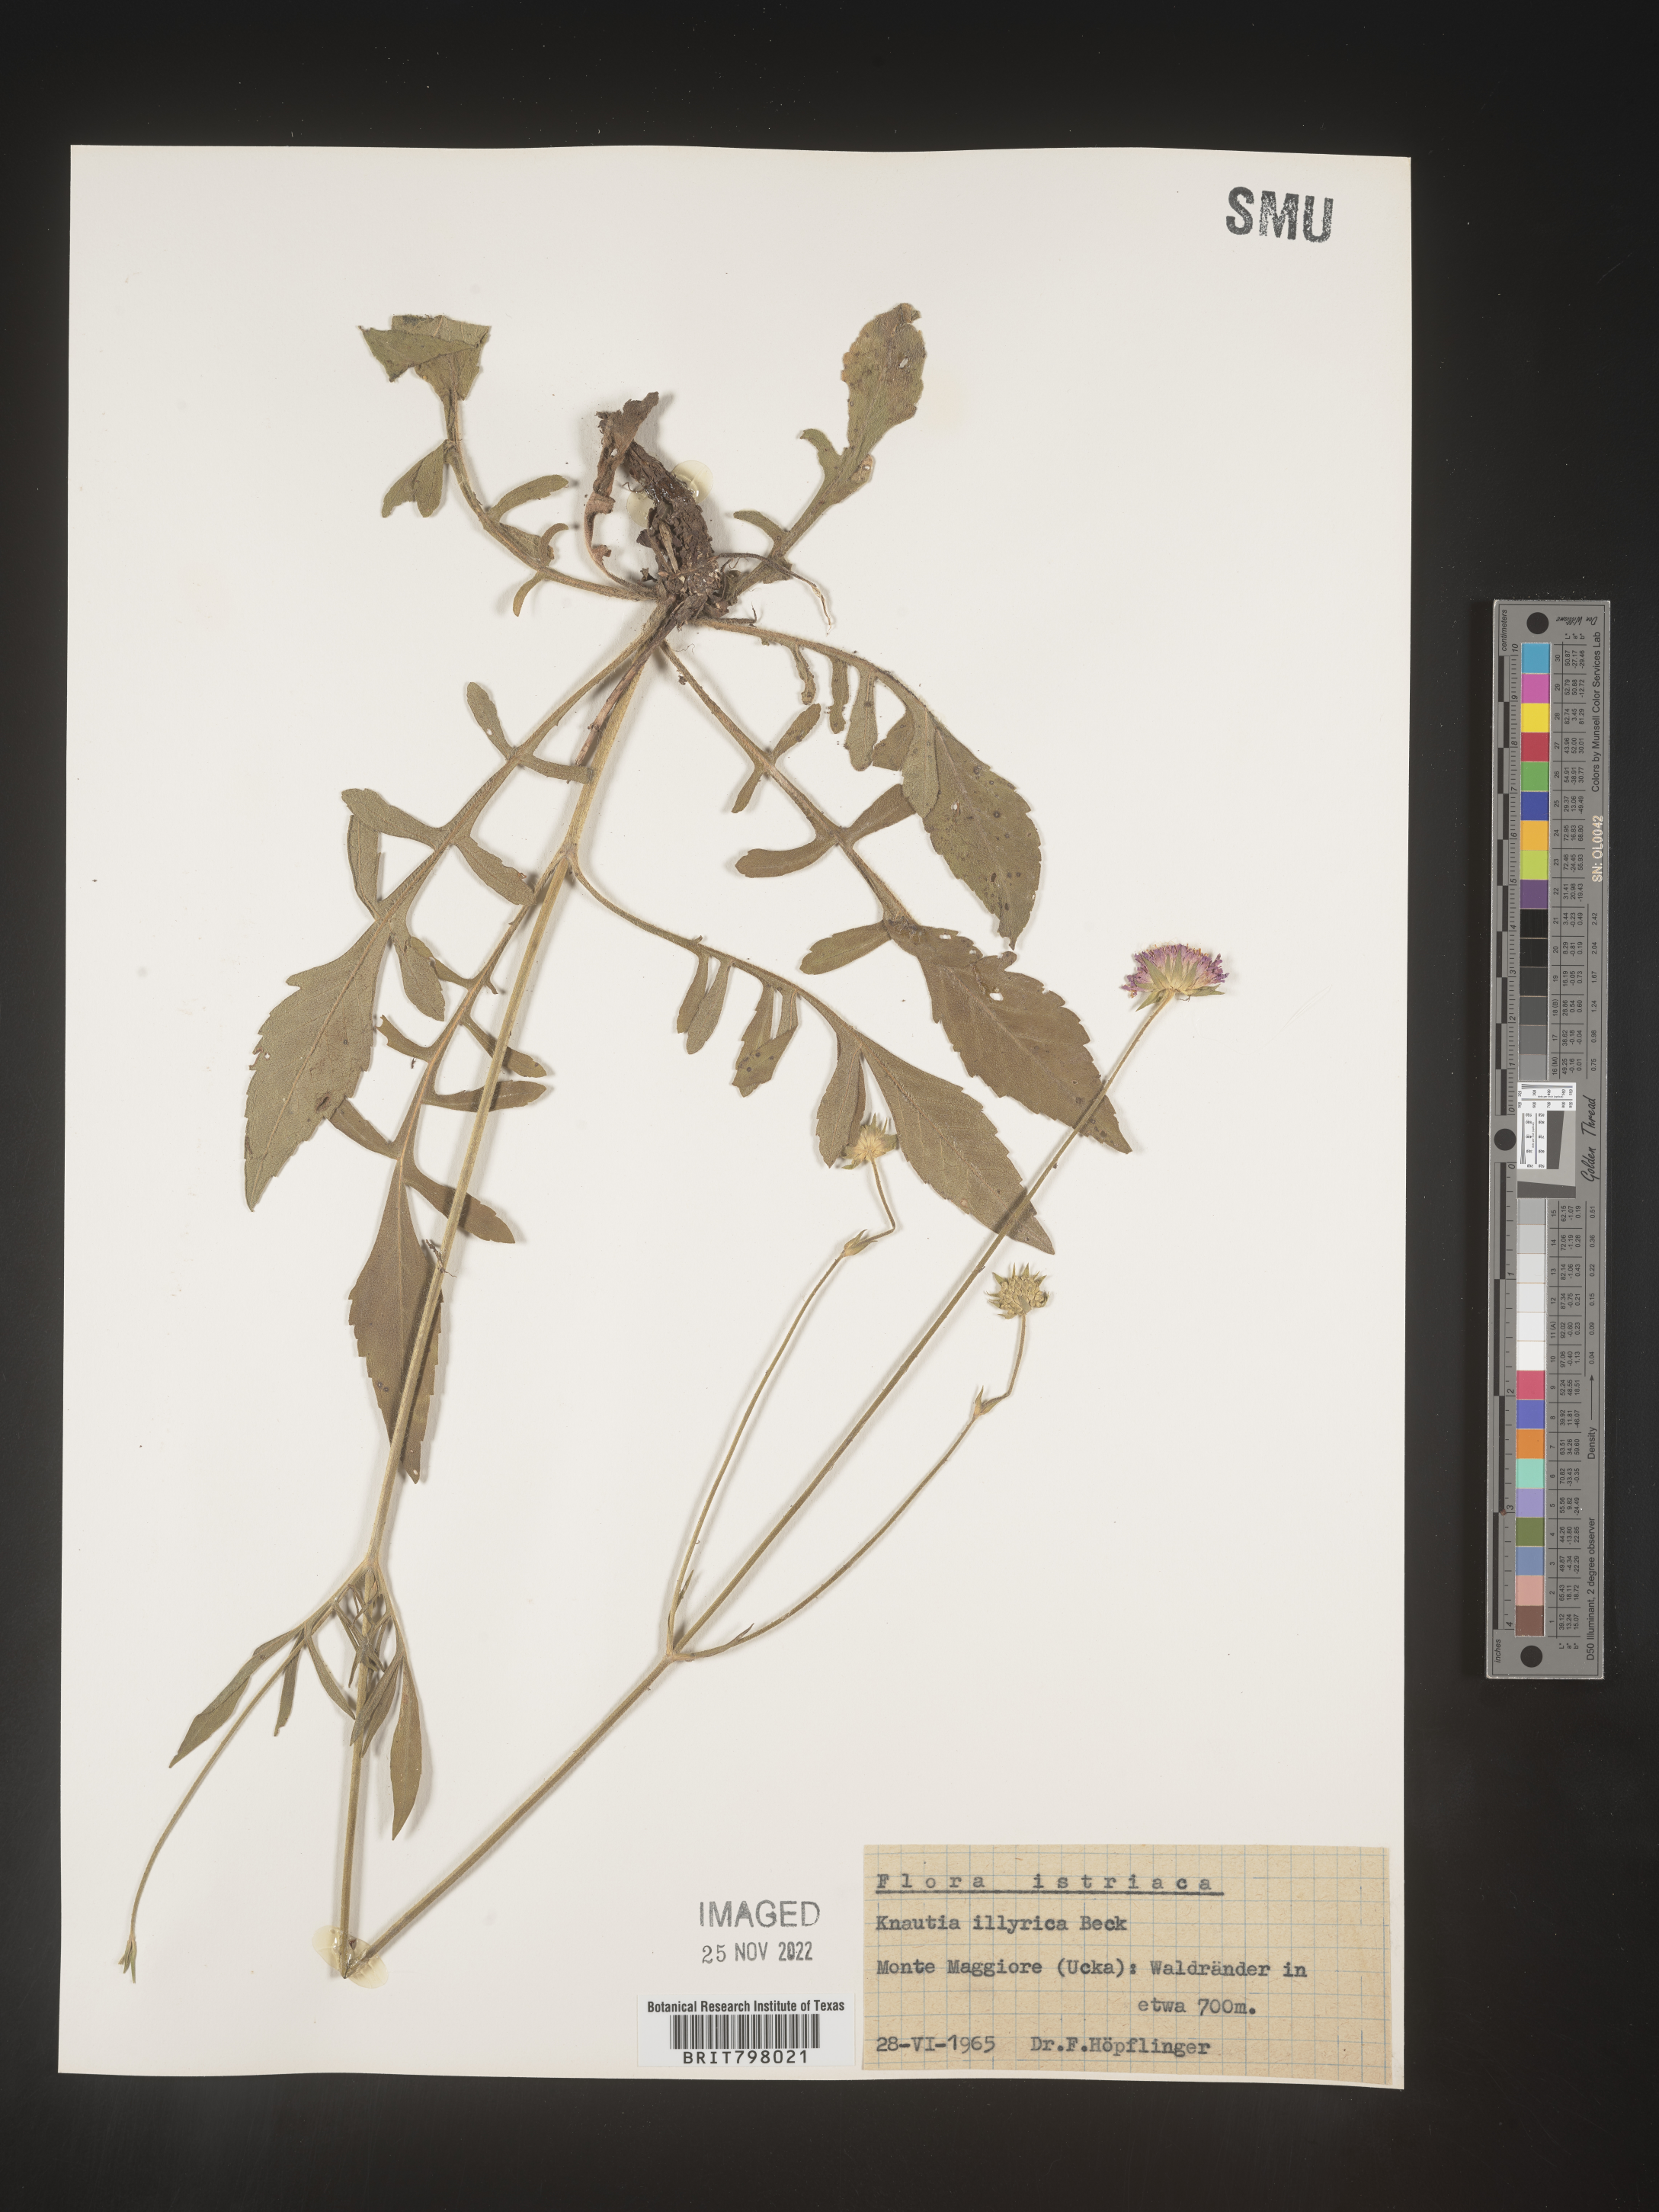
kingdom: Plantae
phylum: Tracheophyta
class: Magnoliopsida
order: Dipsacales
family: Caprifoliaceae
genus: Knautia
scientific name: Knautia
